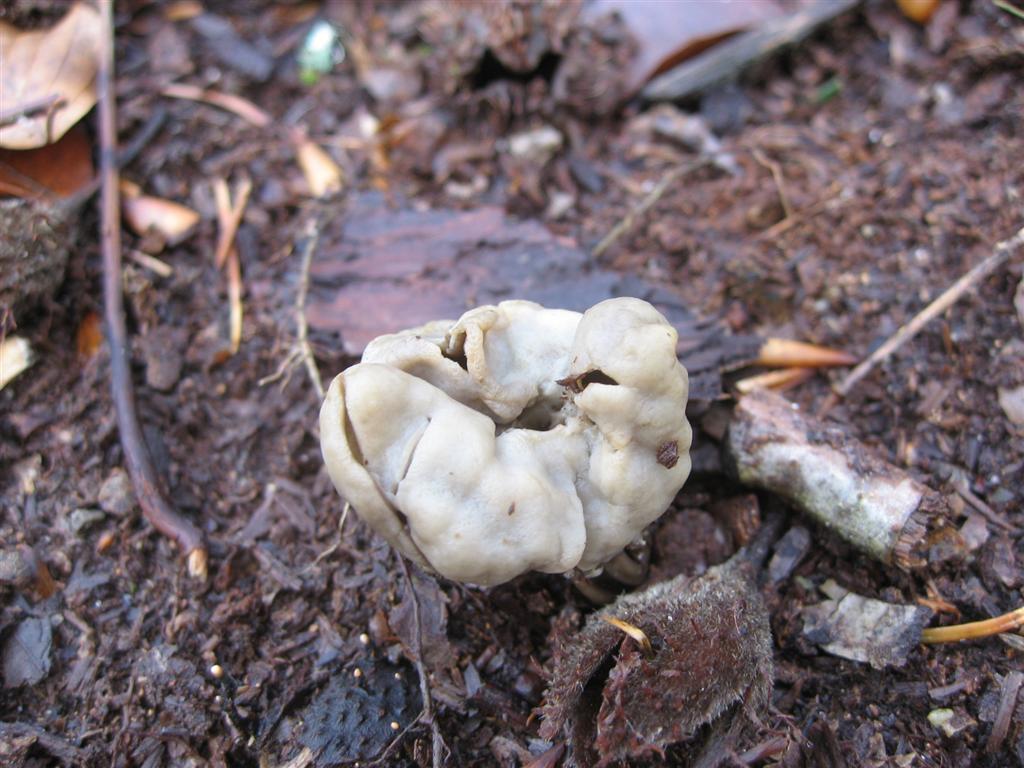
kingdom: Fungi
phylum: Ascomycota
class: Pezizomycetes
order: Pezizales
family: Helvellaceae
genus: Helvella
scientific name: Helvella lacunosa
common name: grubet foldhat
